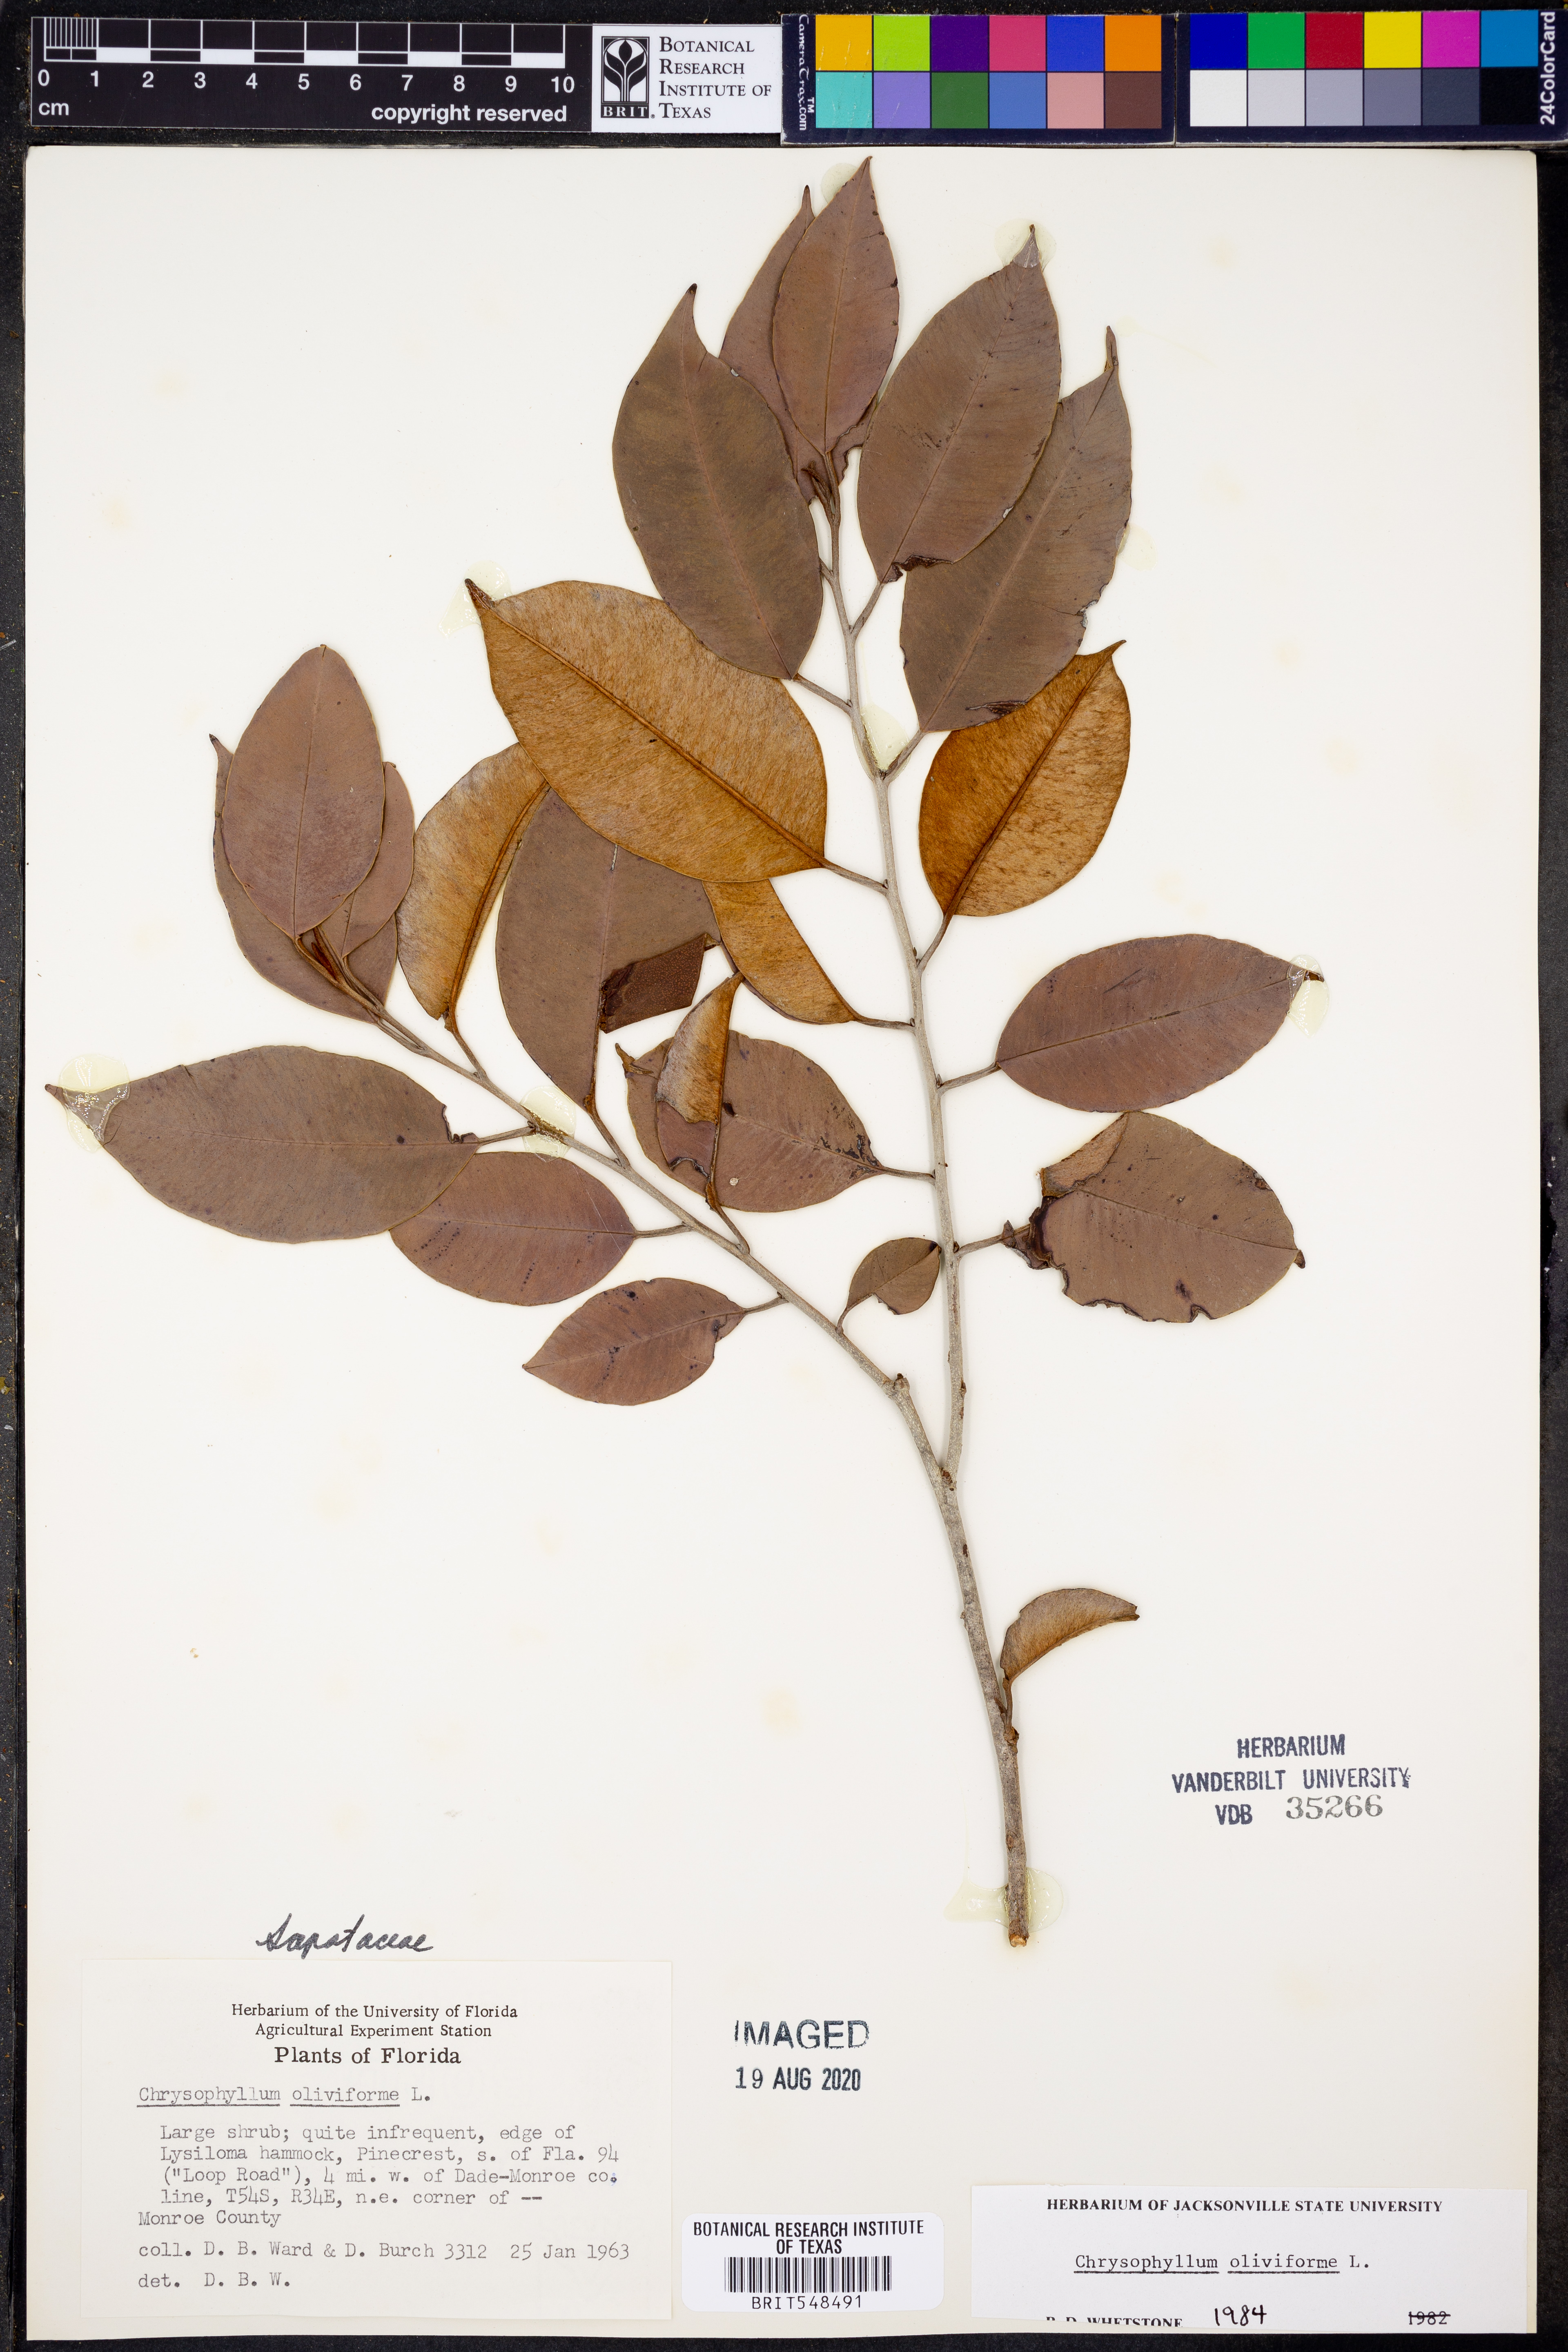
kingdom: Plantae
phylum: Tracheophyta
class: Magnoliopsida
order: Ericales
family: Sapotaceae
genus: Chrysophyllum
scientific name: Chrysophyllum oliviforme
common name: Satinleaf
